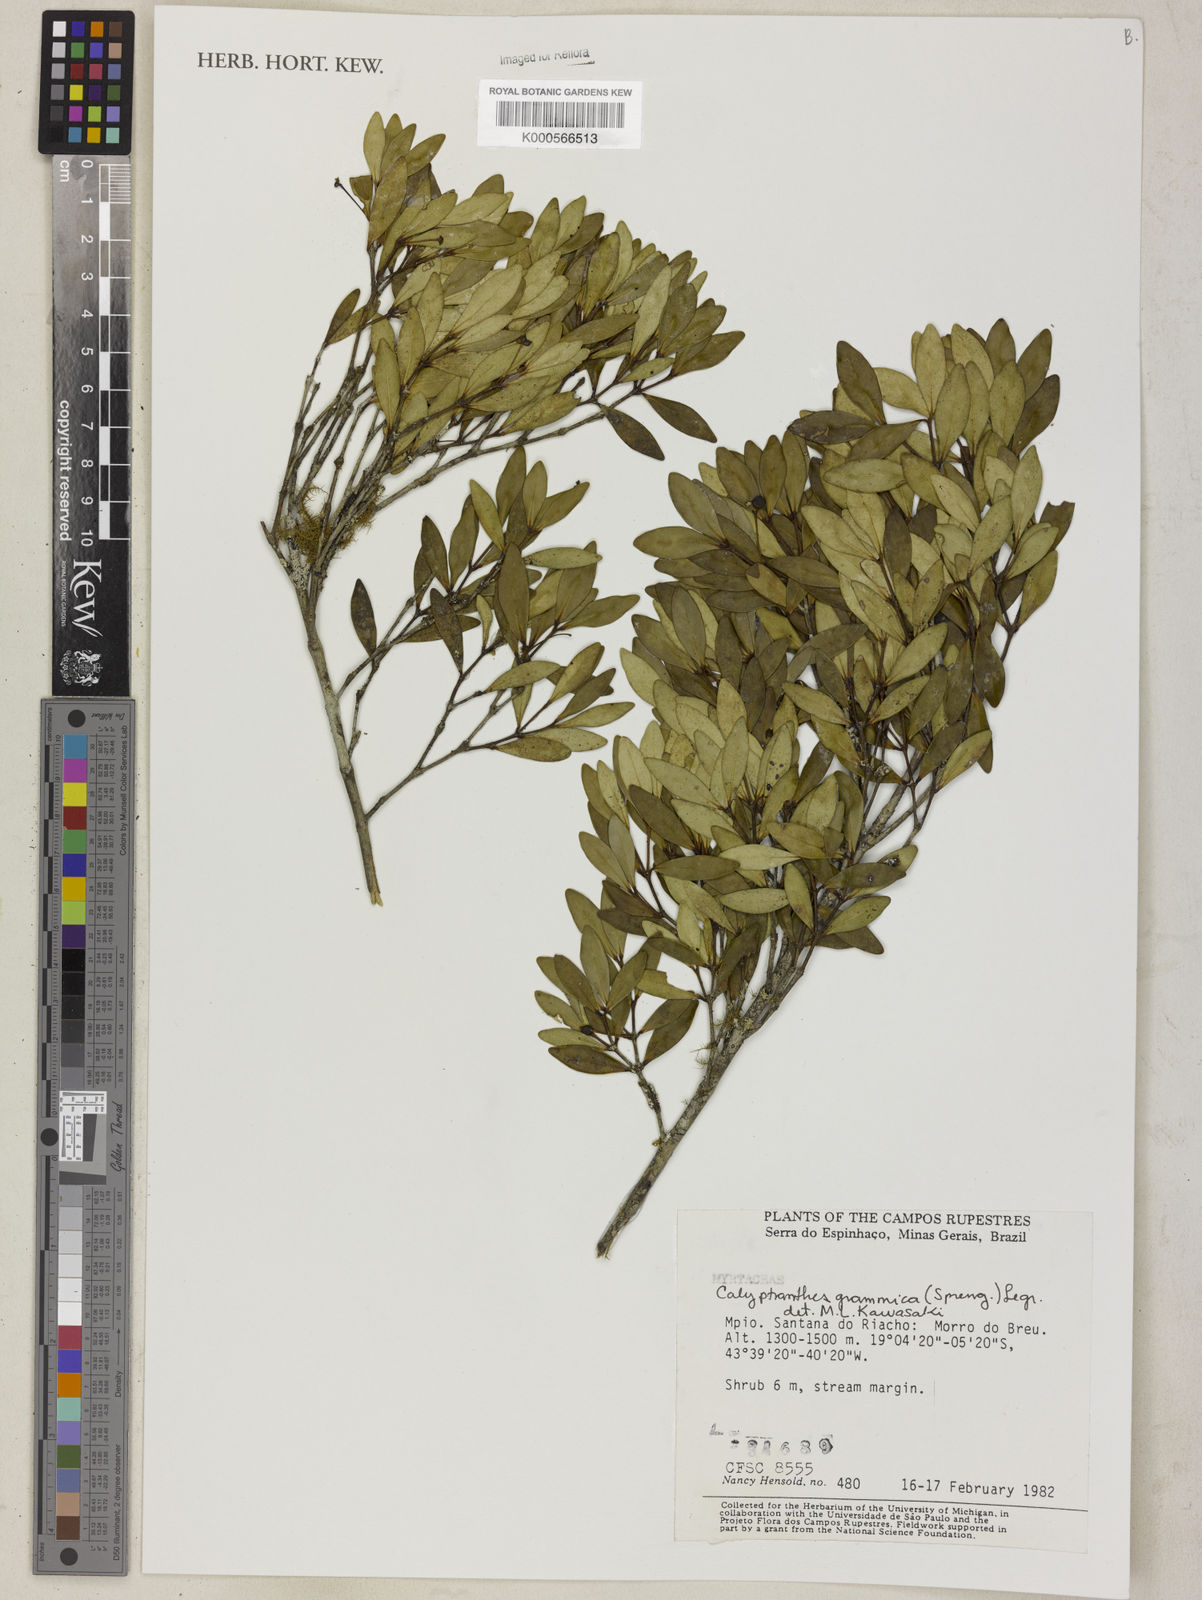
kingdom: Plantae
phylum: Tracheophyta
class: Magnoliopsida
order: Myrtales
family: Myrtaceae
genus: Myrcia
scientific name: Myrcia grammica
